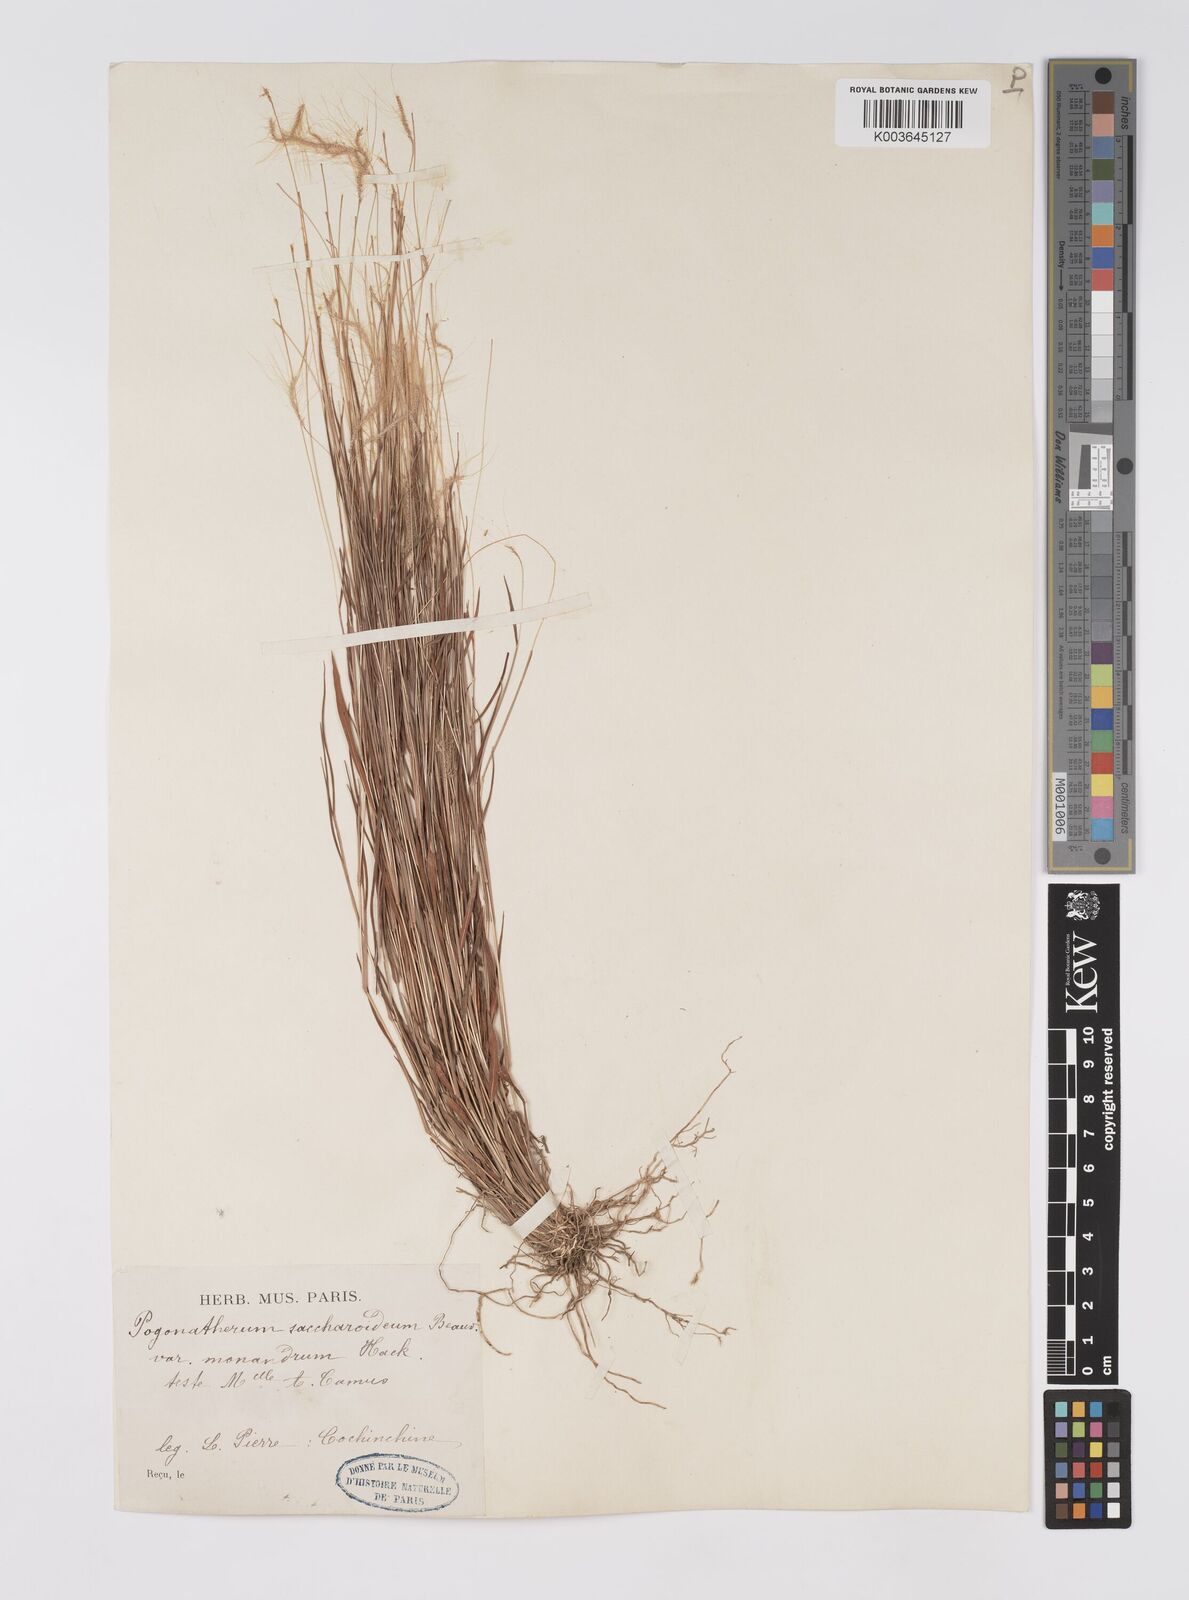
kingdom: Plantae
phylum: Tracheophyta
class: Liliopsida
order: Poales
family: Poaceae
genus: Pogonatherum
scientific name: Pogonatherum crinitum
